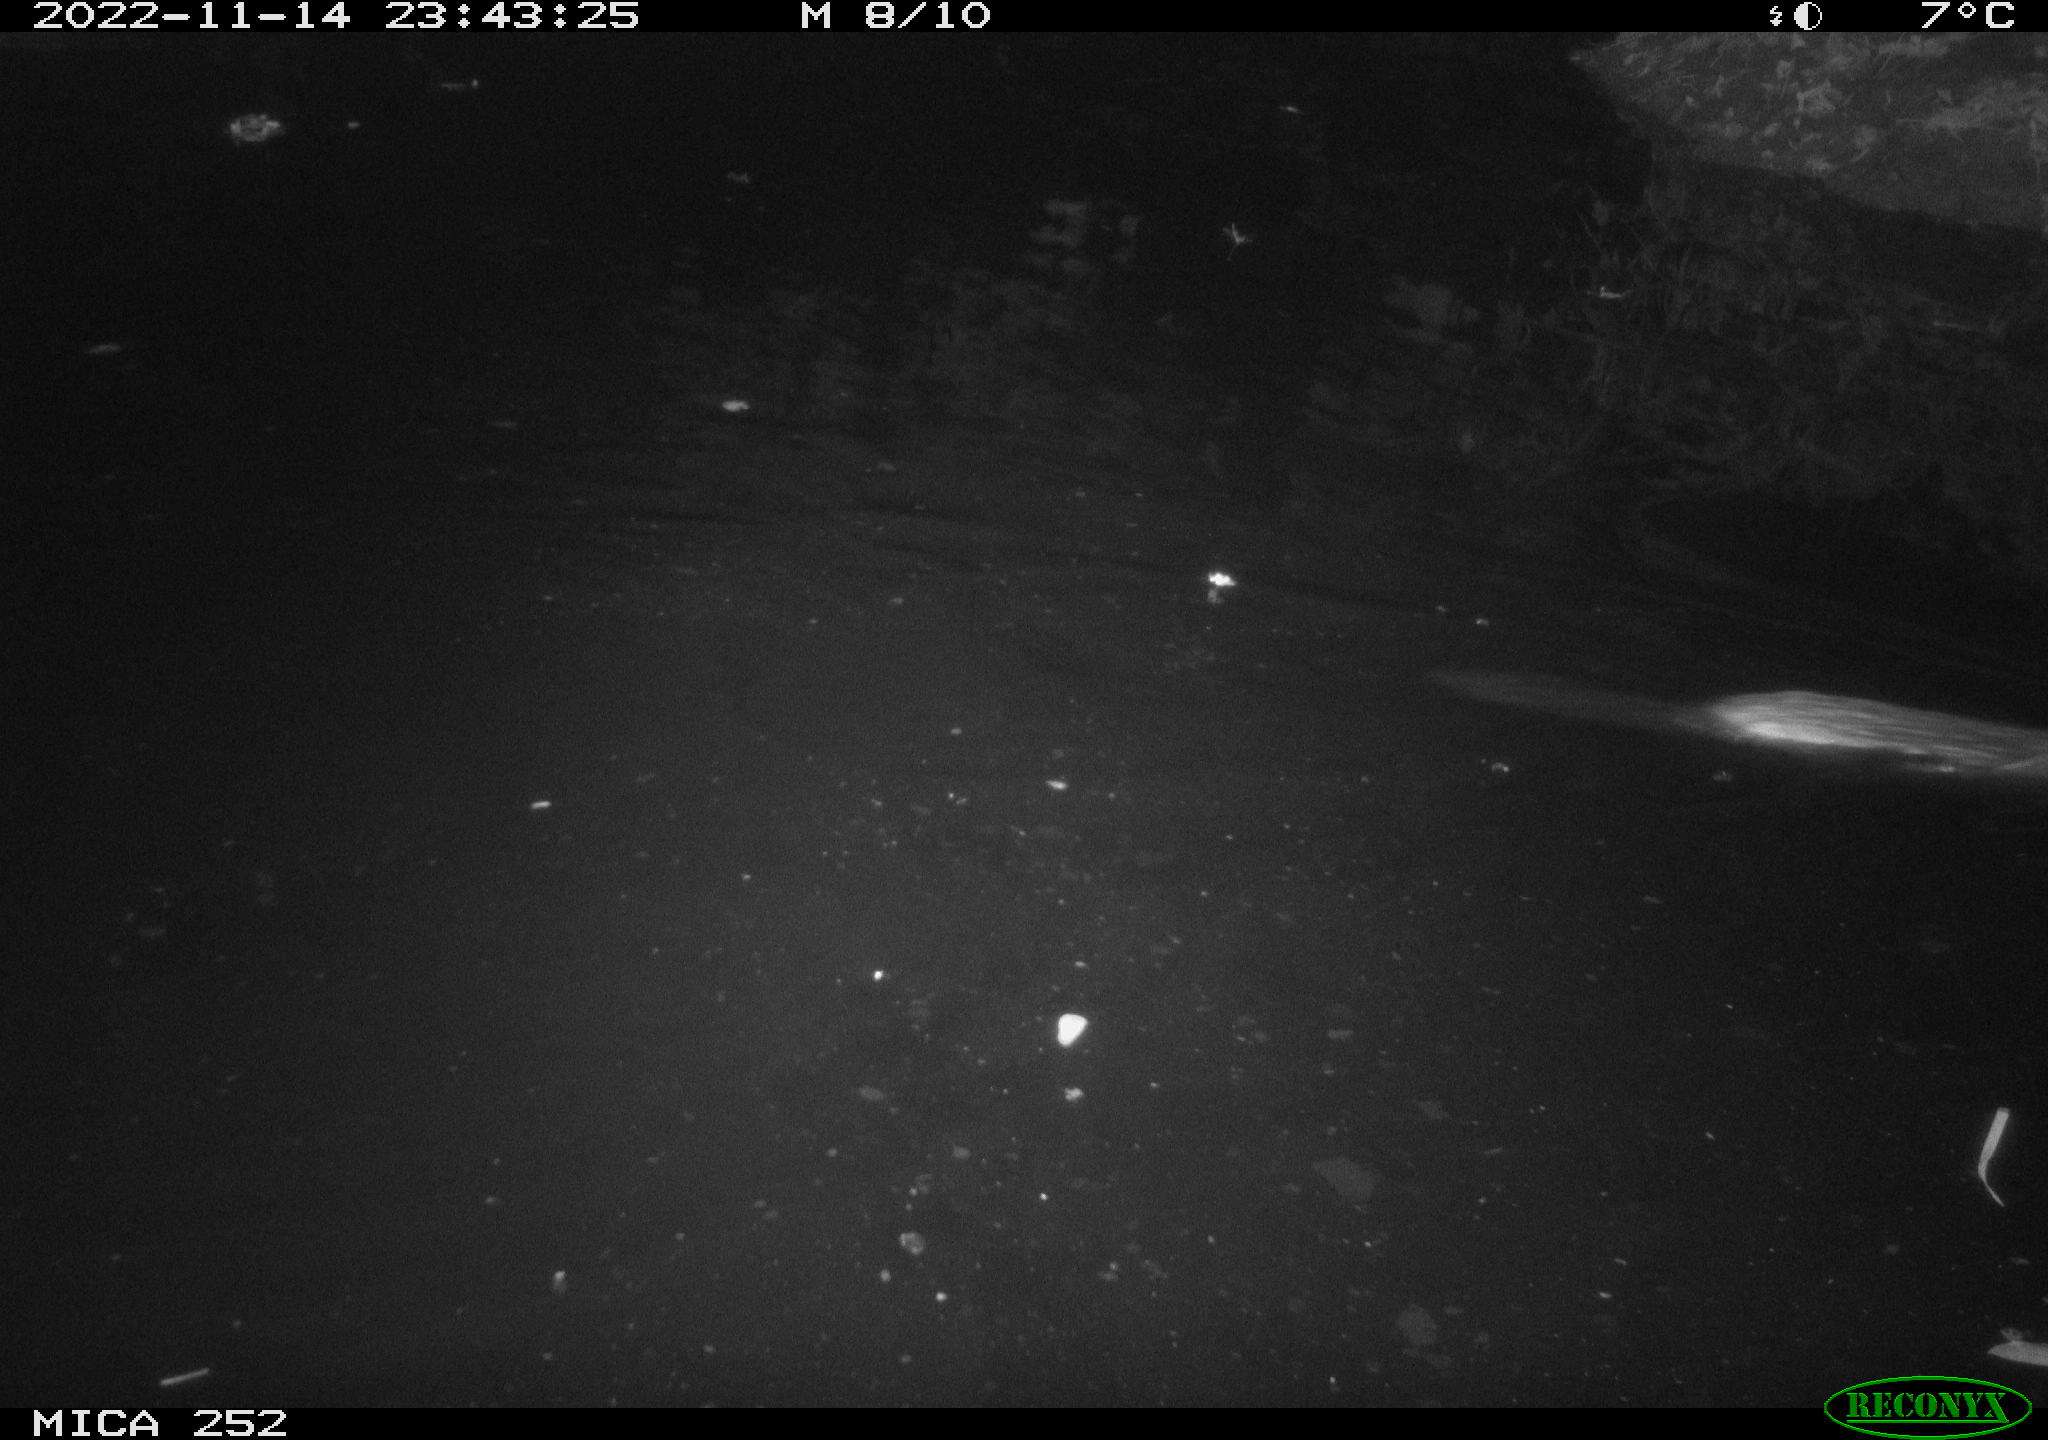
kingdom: Animalia
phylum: Chordata
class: Mammalia
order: Rodentia
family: Castoridae
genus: Castor
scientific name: Castor fiber
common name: Eurasian beaver
